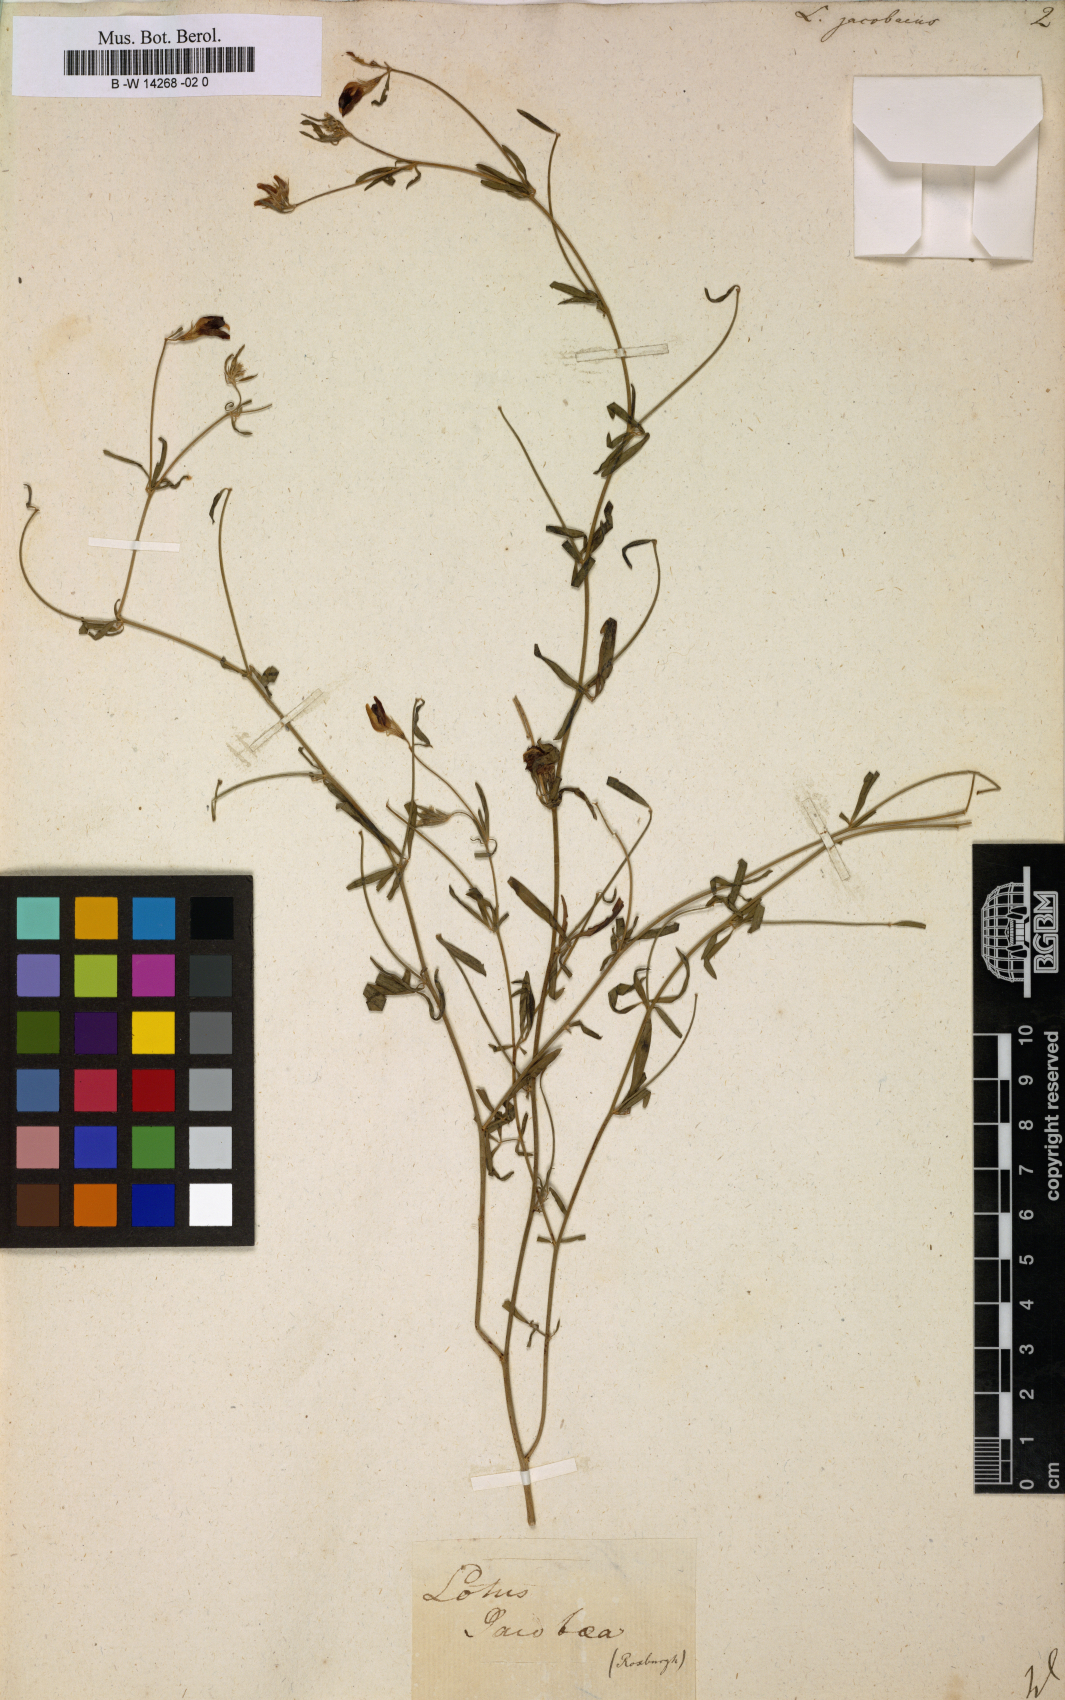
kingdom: Plantae
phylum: Tracheophyta
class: Magnoliopsida
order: Fabales
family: Fabaceae
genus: Lotus
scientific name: Lotus jacobaeus
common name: St. james's trefoil
